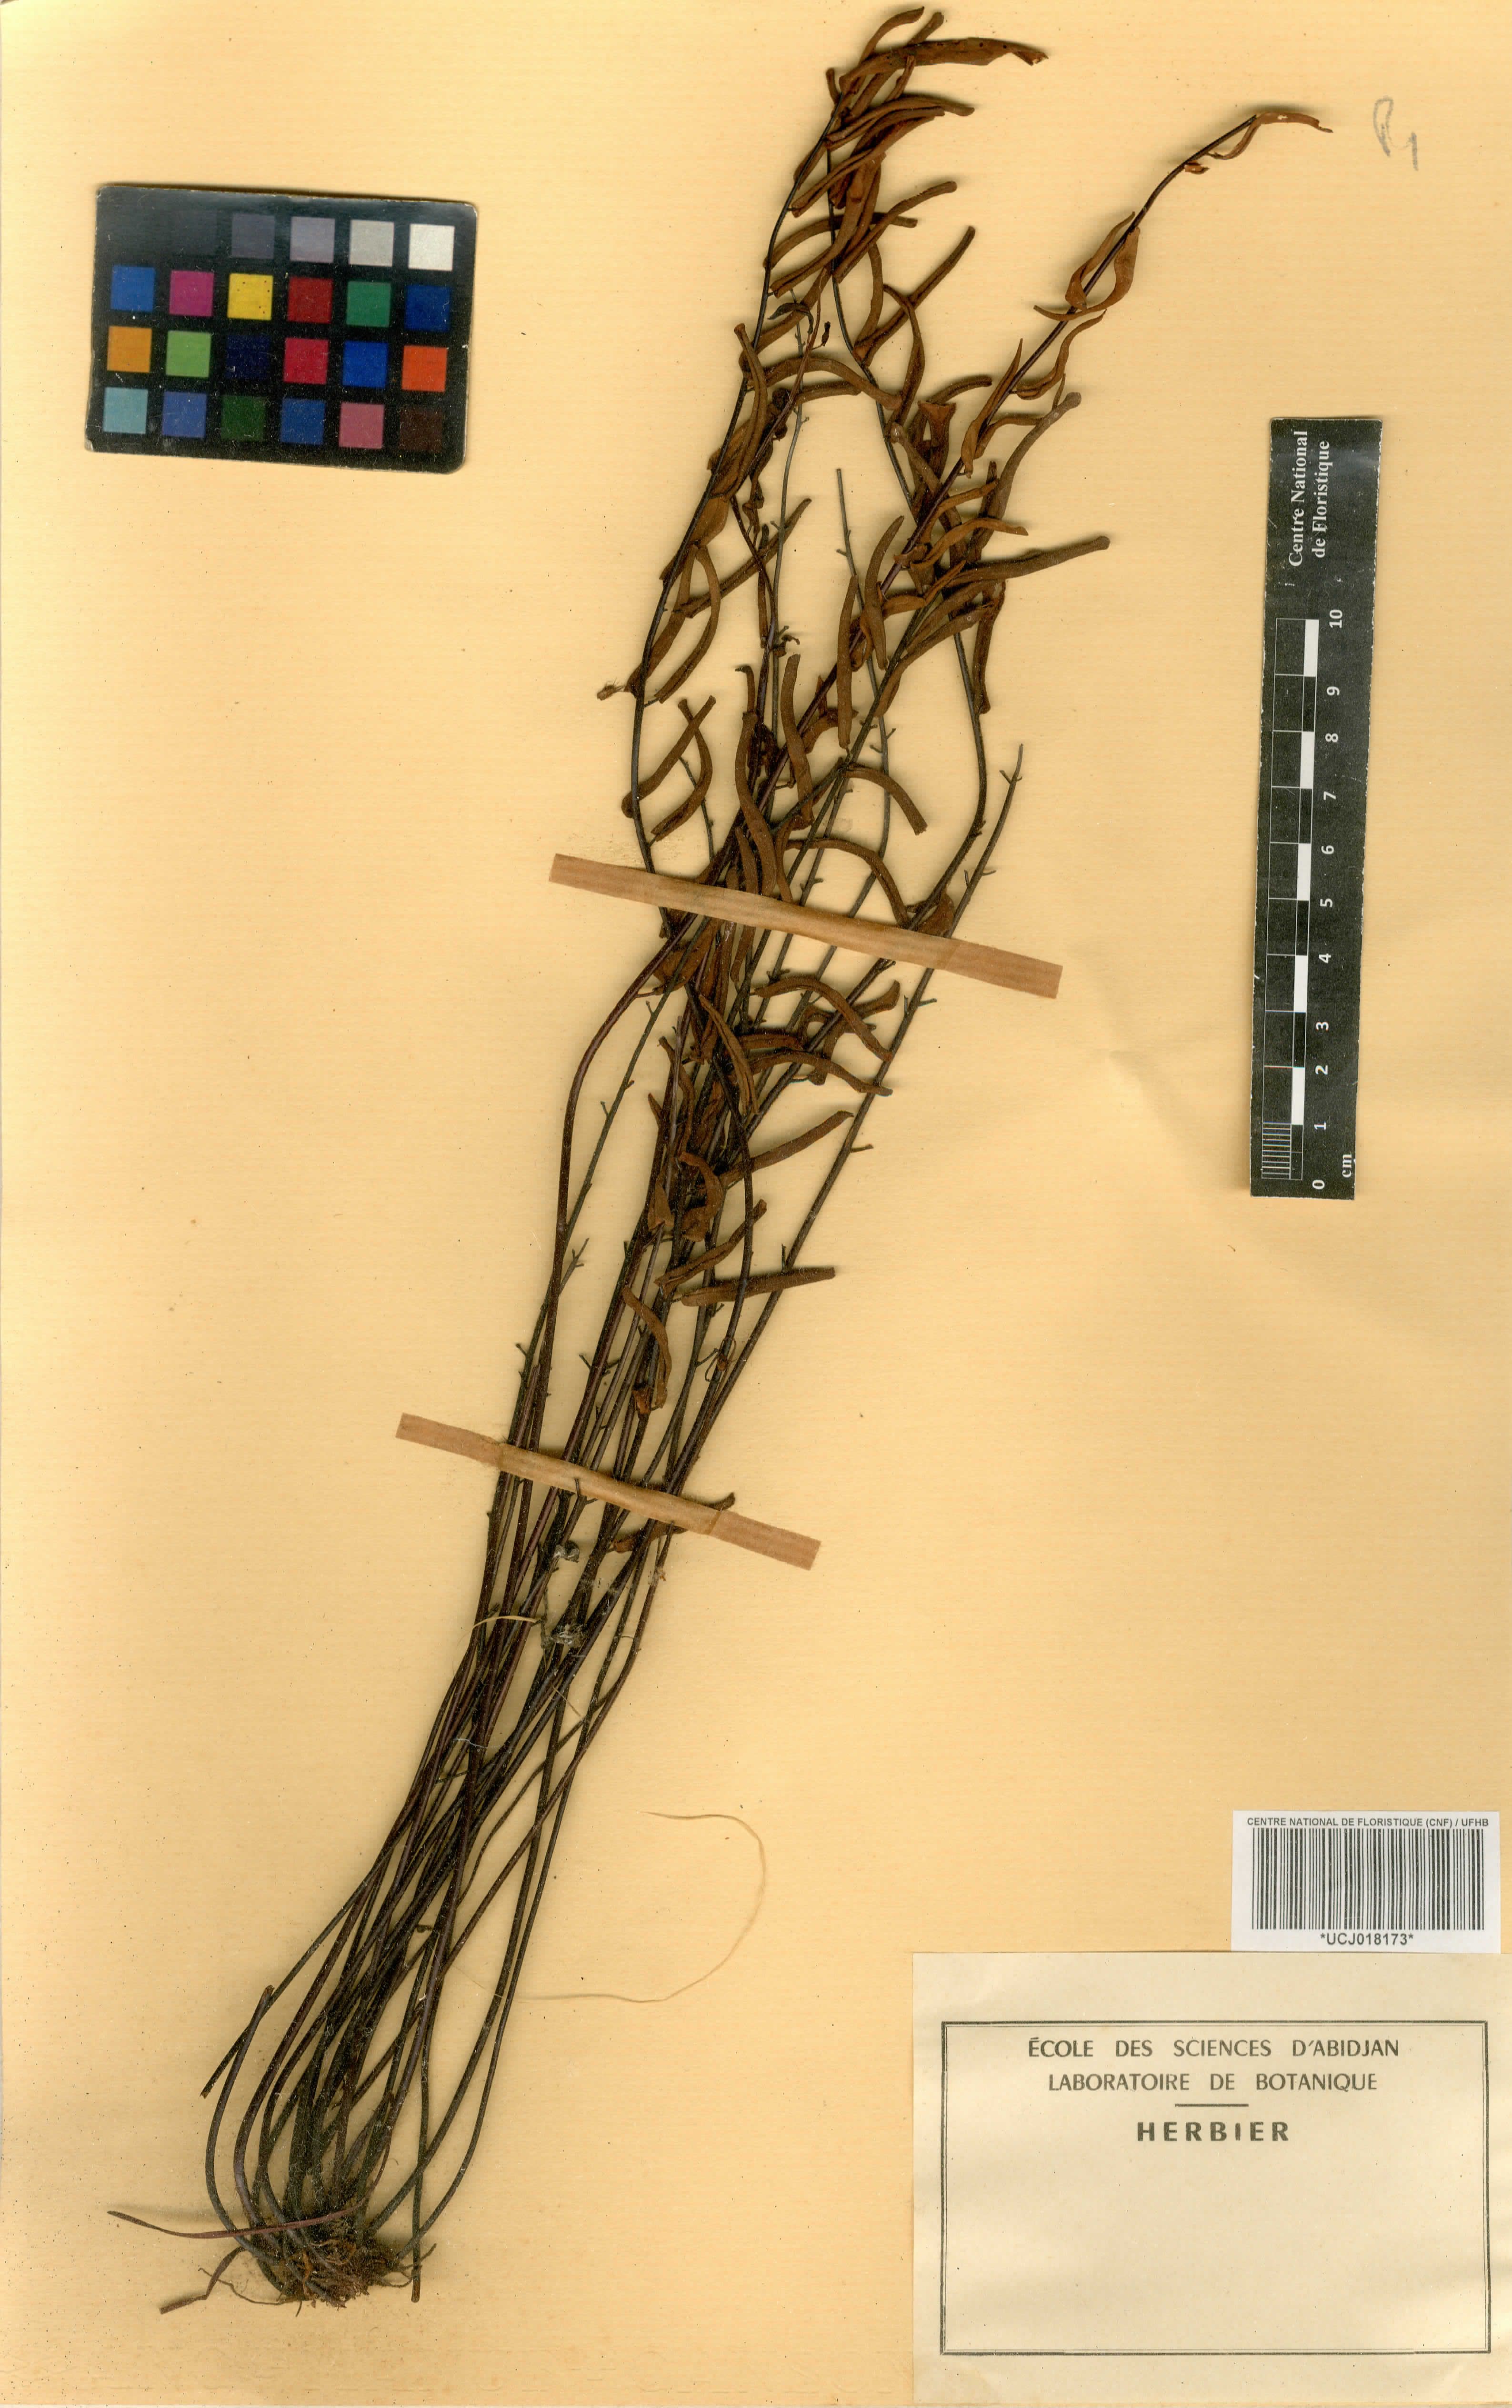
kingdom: Plantae
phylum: Tracheophyta
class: Polypodiopsida
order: Polypodiales
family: Pteridaceae
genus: Pellaea
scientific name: Pellaea doniana
